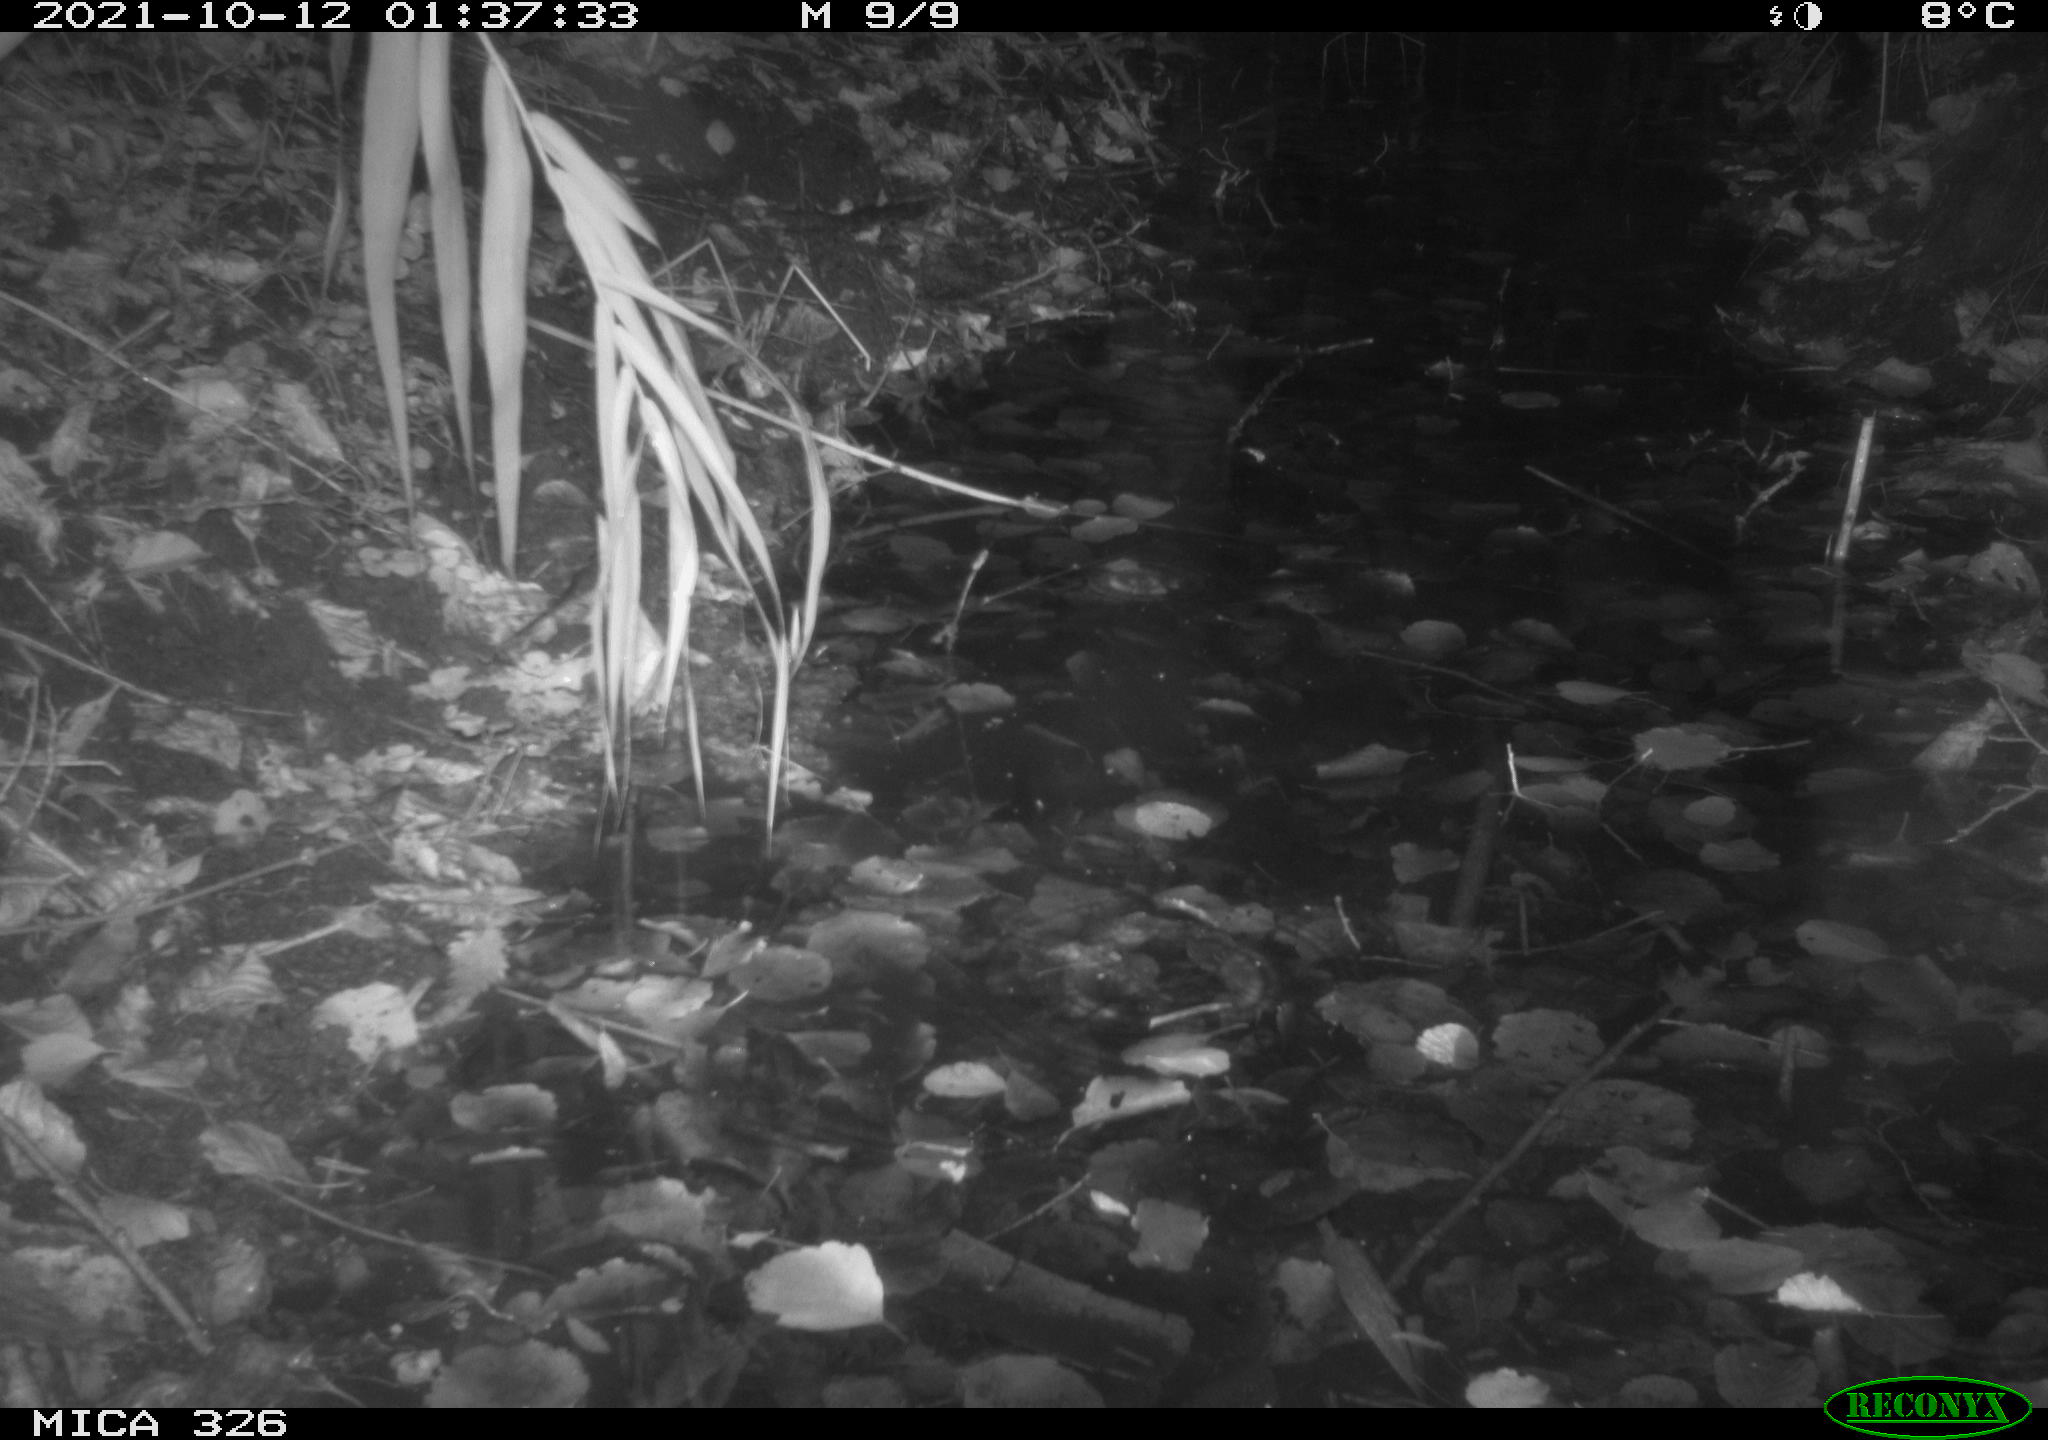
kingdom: Animalia
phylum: Chordata
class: Mammalia
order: Carnivora
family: Mustelidae
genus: Lutra
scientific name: Lutra lutra
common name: European otter
